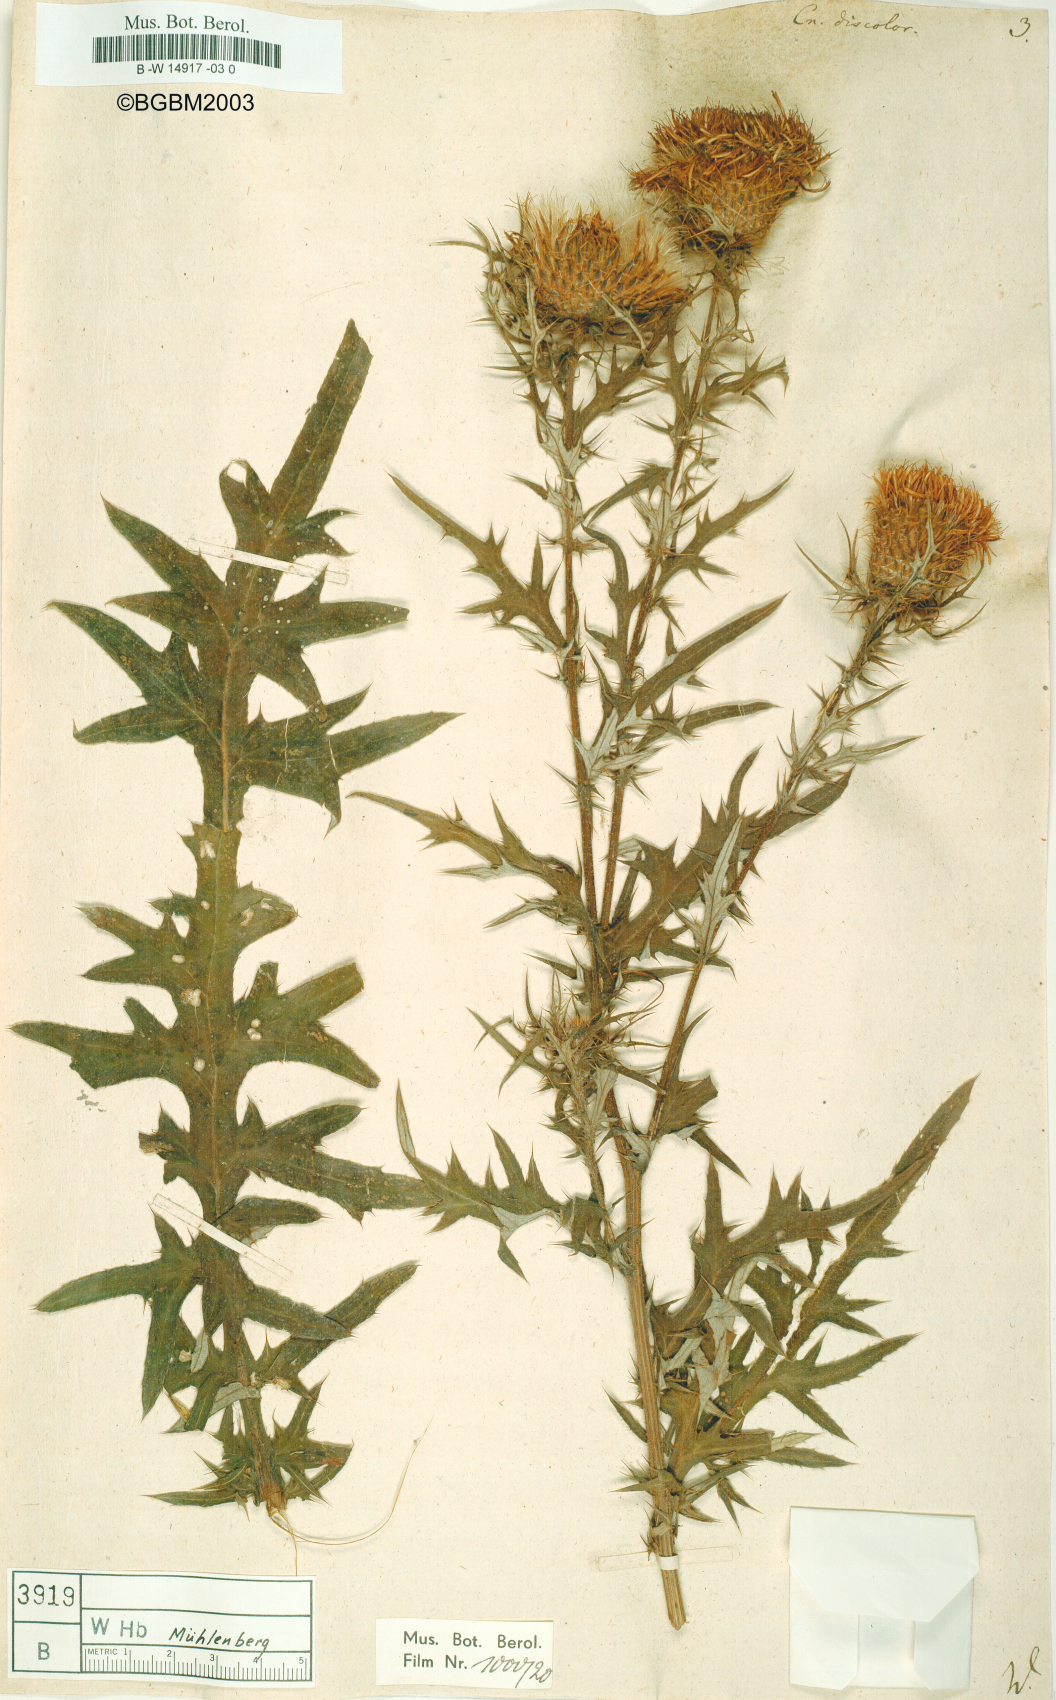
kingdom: Plantae
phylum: Tracheophyta
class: Magnoliopsida
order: Asterales
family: Asteraceae
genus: Cirsium
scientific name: Cirsium Cnicus discolor
